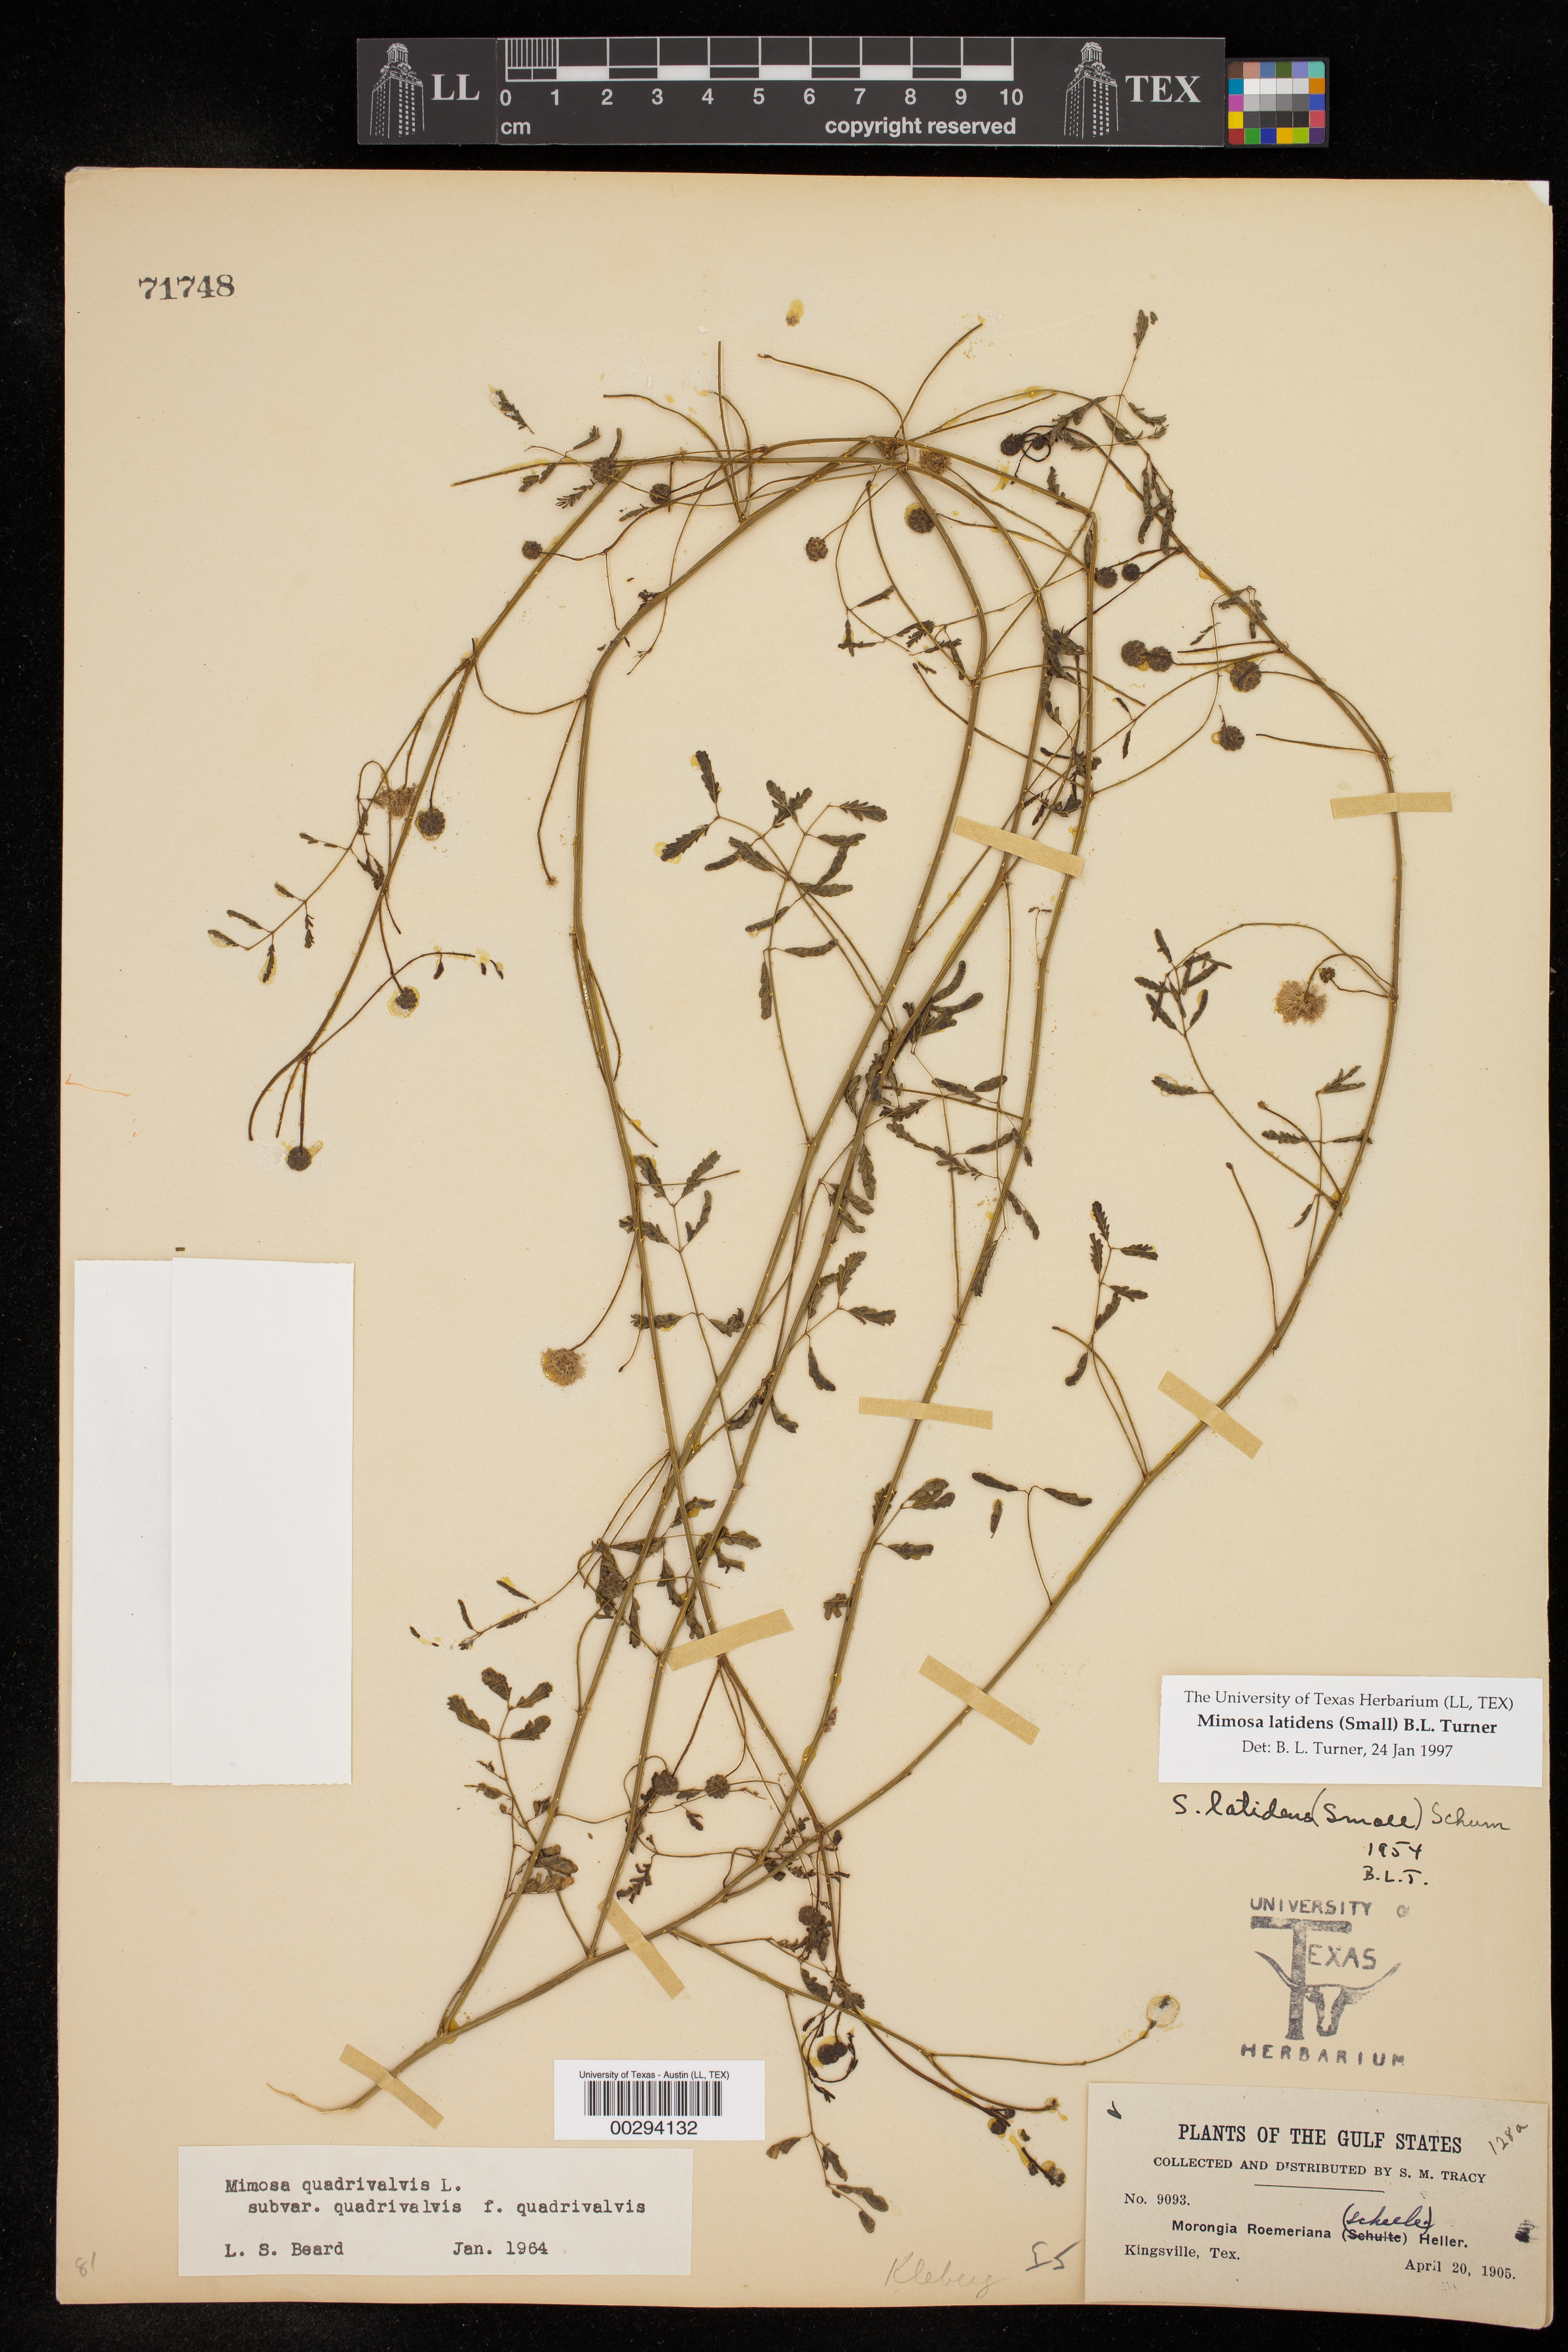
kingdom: Plantae
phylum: Tracheophyta
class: Magnoliopsida
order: Fabales
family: Fabaceae
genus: Mimosa
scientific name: Mimosa latidens
